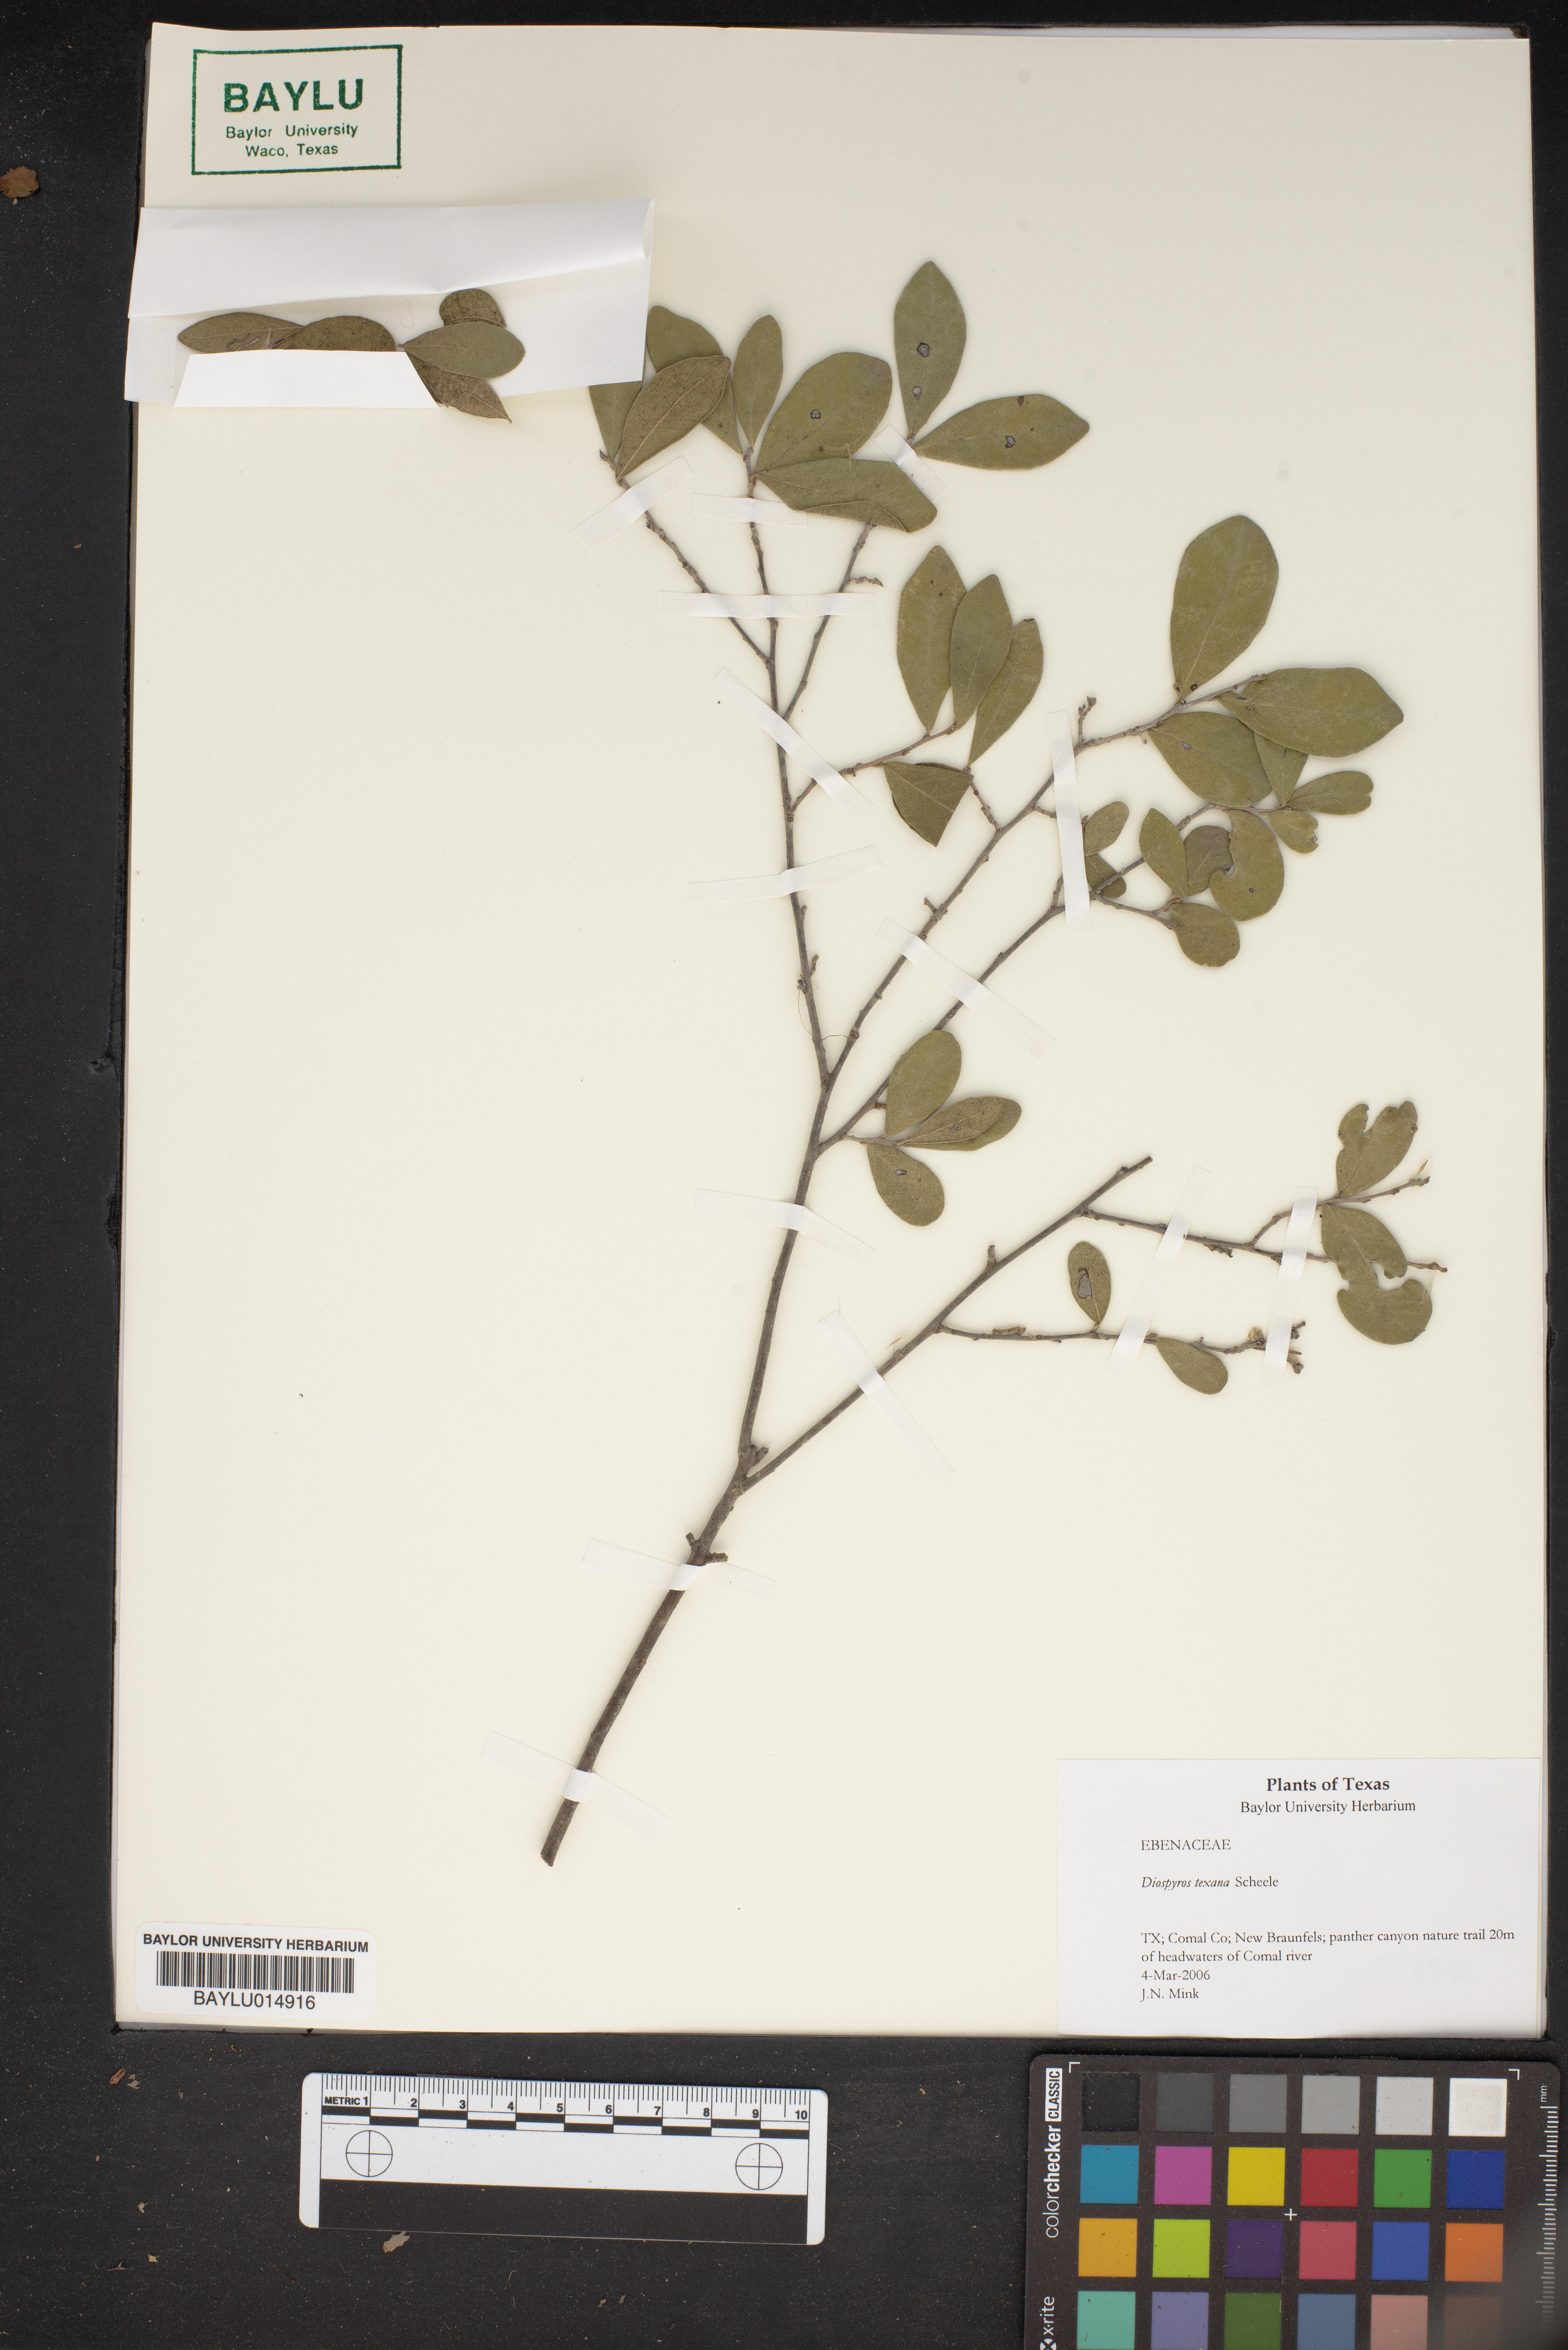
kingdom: Plantae
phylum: Tracheophyta
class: Magnoliopsida
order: Ericales
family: Ebenaceae
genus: Diospyros
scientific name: Diospyros texana
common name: Texas persimmon
